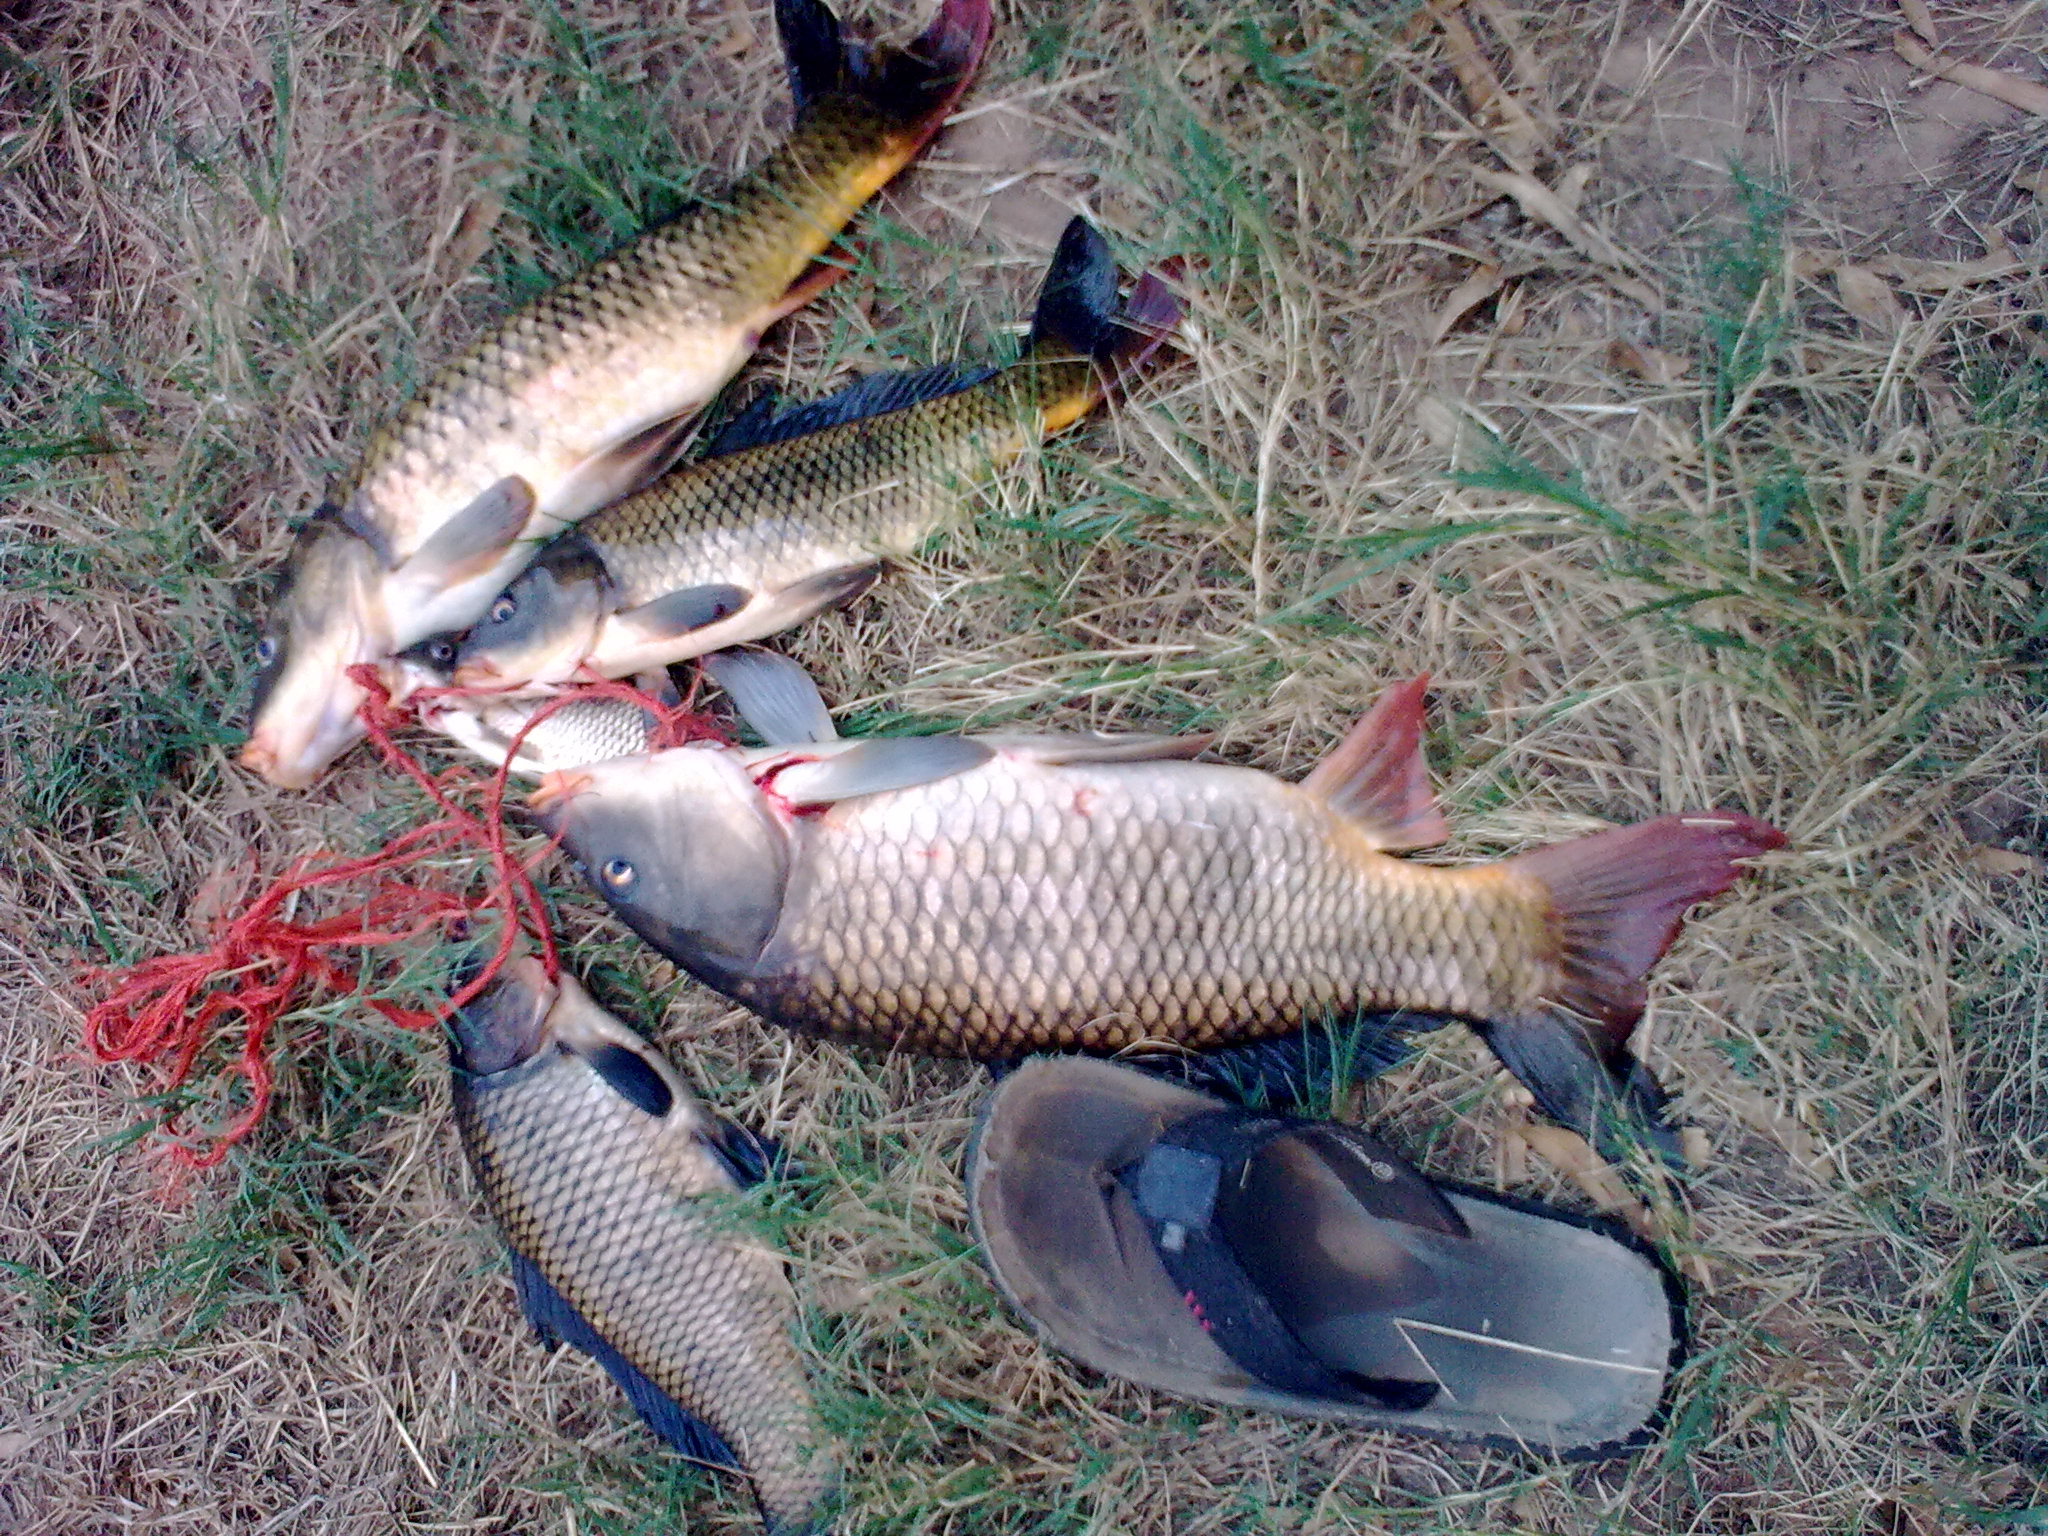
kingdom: Animalia
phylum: Chordata
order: Cypriniformes
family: Cyprinidae
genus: Cyprinus
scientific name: Cyprinus carpio
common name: Common carp
